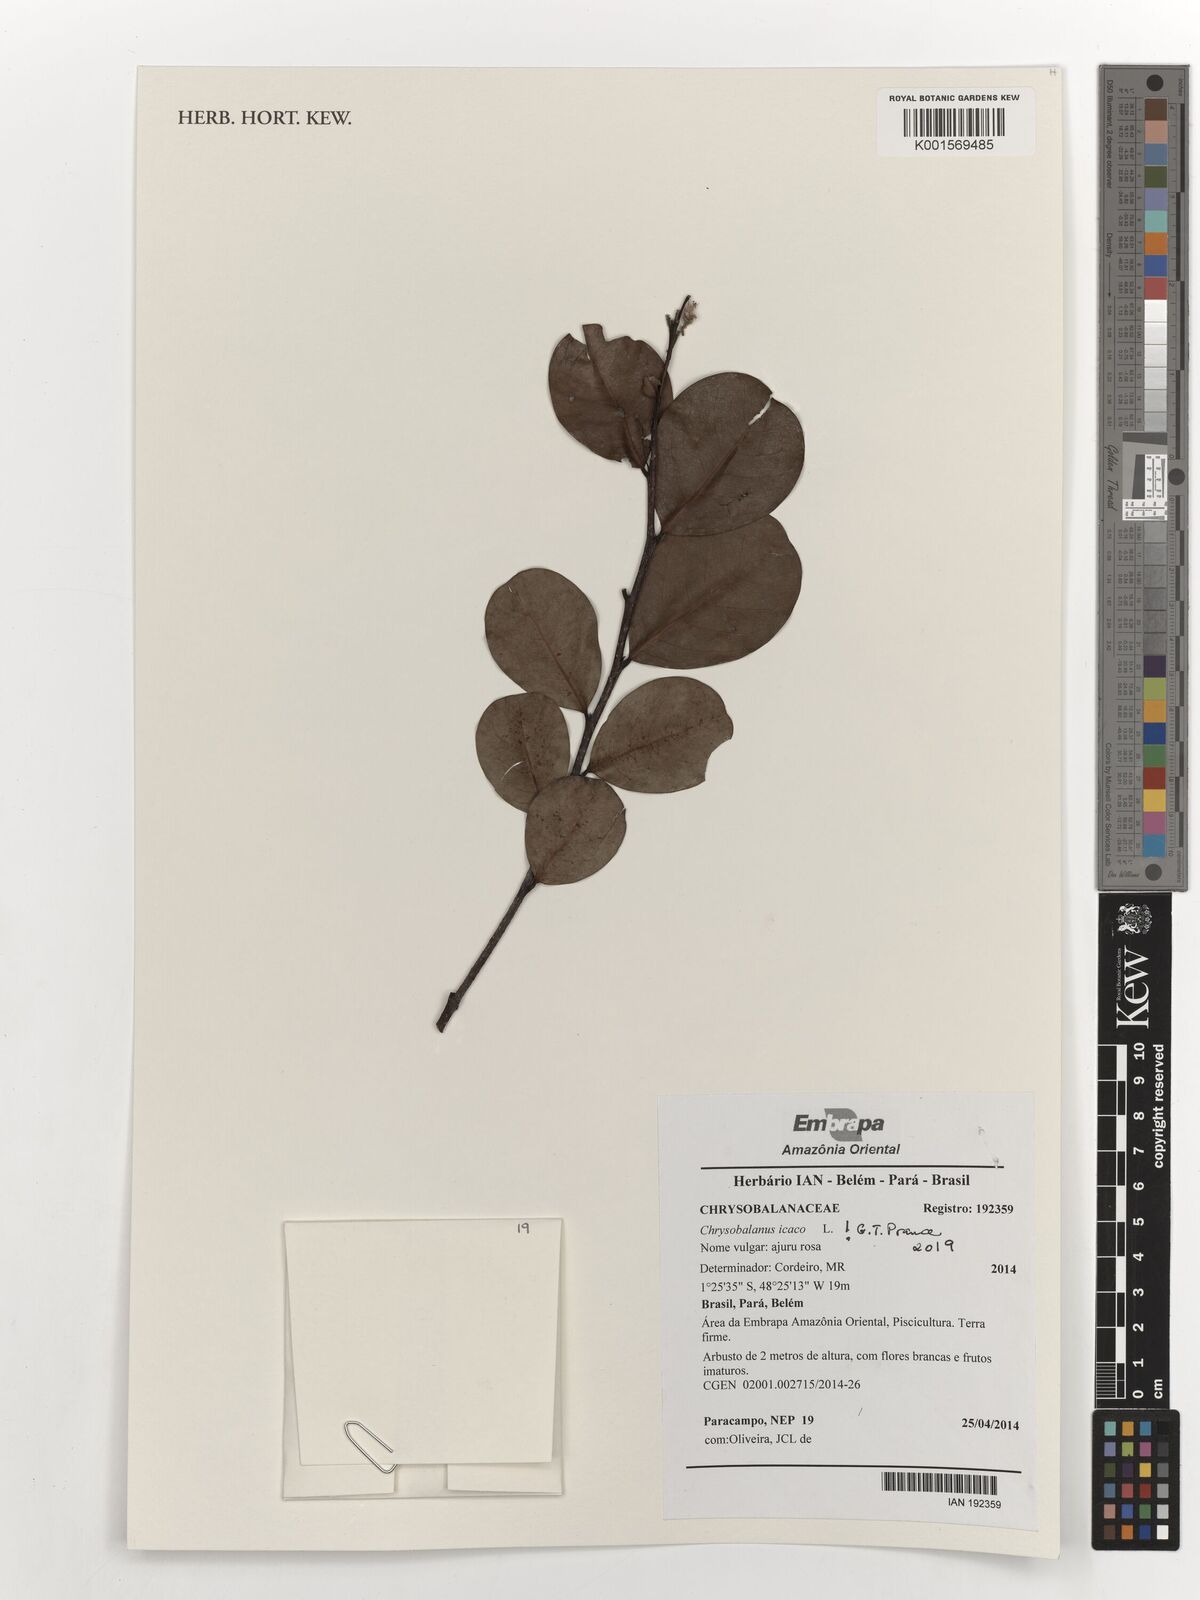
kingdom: Plantae
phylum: Tracheophyta
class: Magnoliopsida
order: Malpighiales
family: Chrysobalanaceae
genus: Chrysobalanus
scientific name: Chrysobalanus icaco
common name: Coco plum
